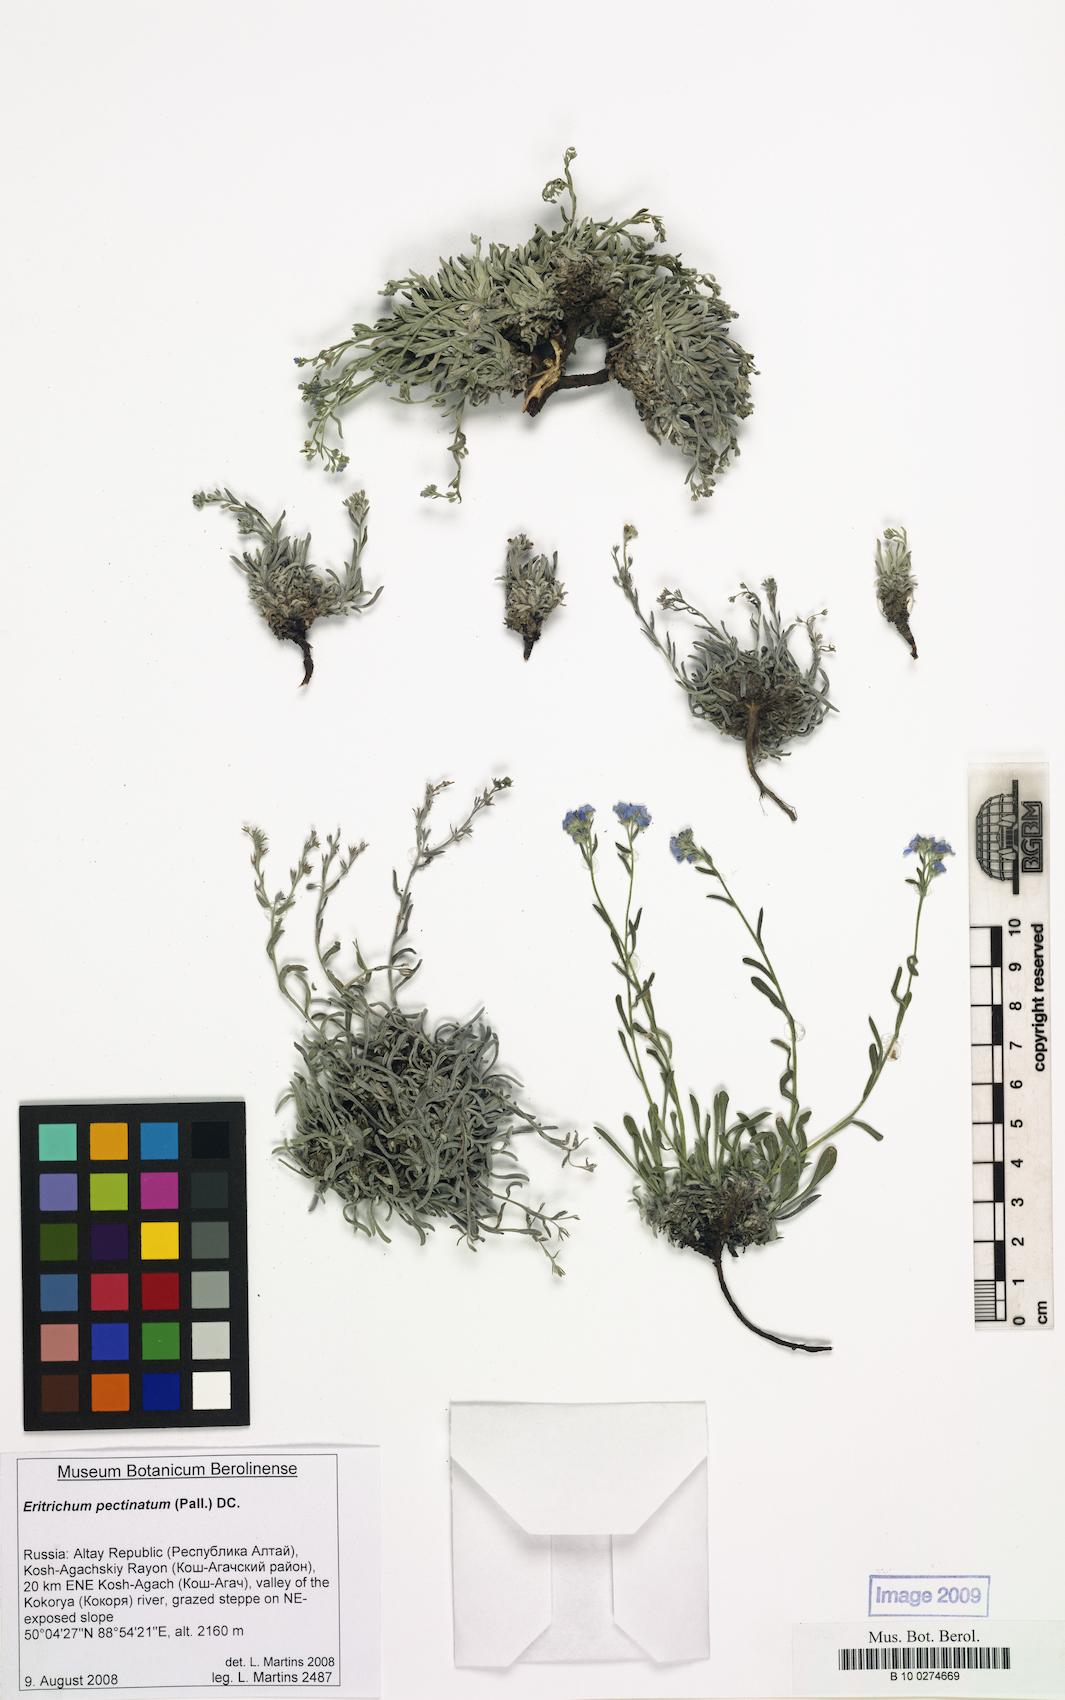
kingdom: Plantae
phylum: Tracheophyta
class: Magnoliopsida
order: Boraginales
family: Boraginaceae
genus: Eritrichium
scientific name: Eritrichium pectinatum
